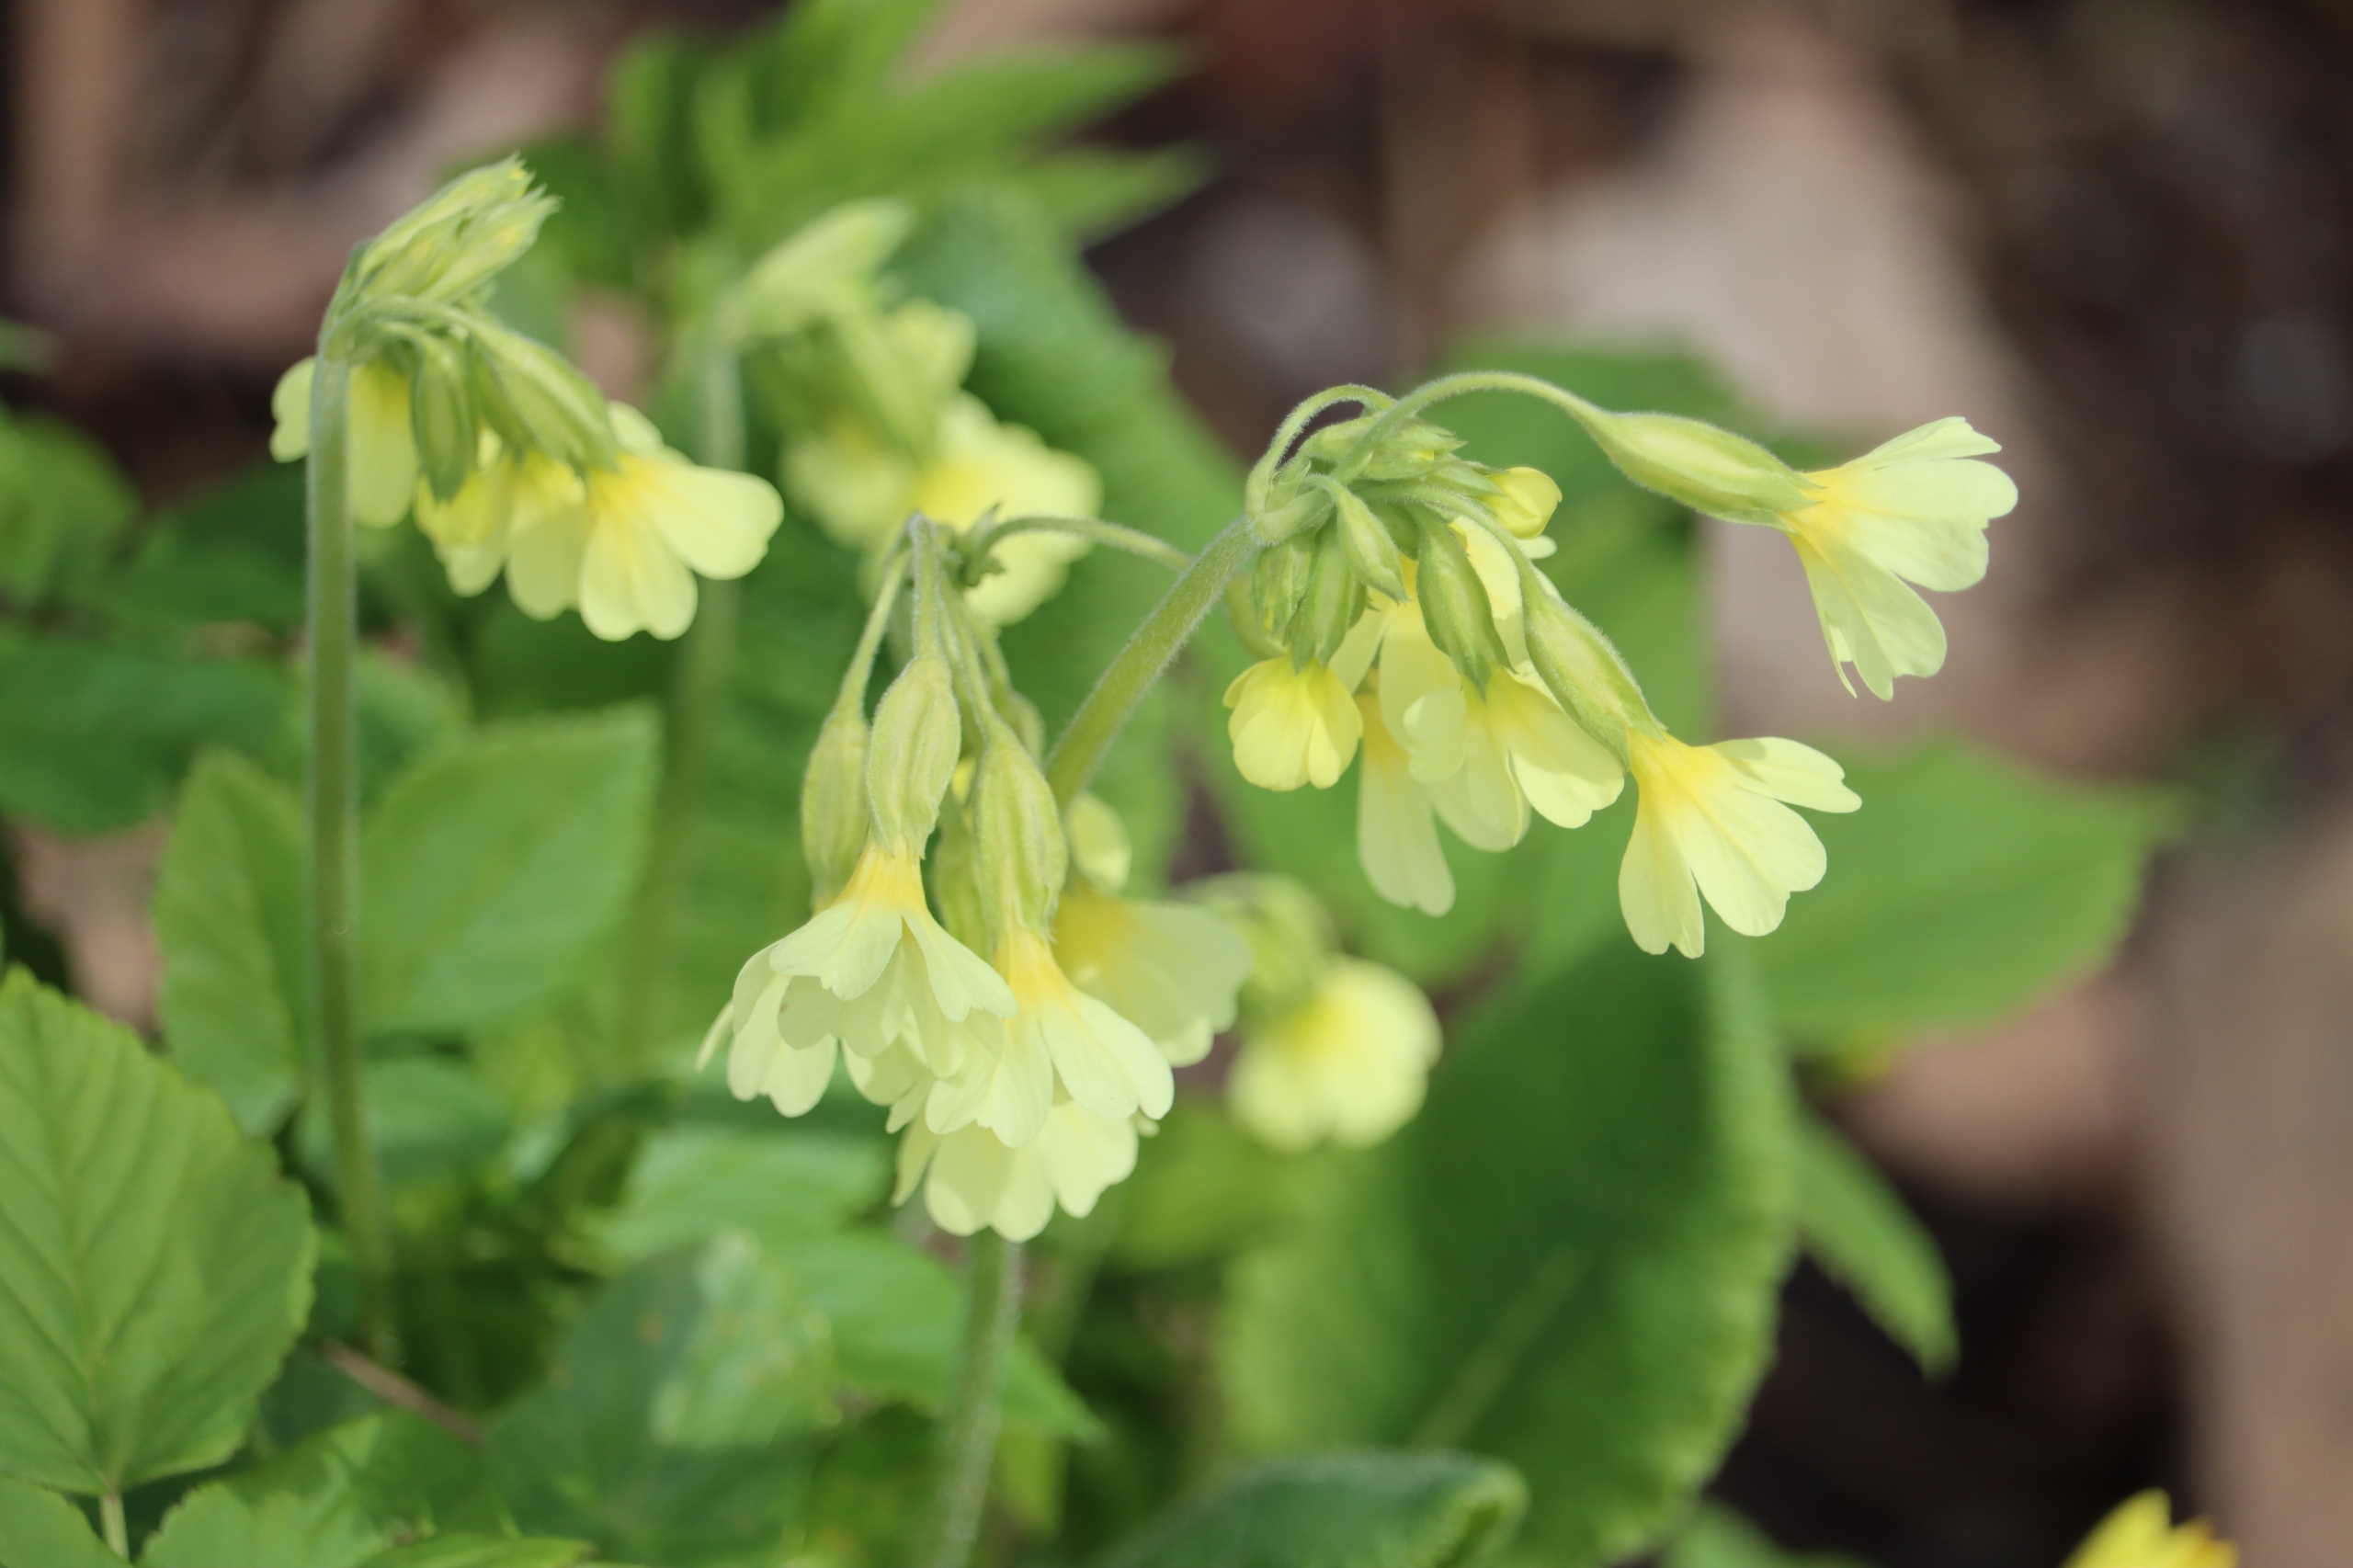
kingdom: Plantae
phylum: Tracheophyta
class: Magnoliopsida
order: Ericales
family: Primulaceae
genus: Primula
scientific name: Primula elatior
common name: Fladkravet kodriver
